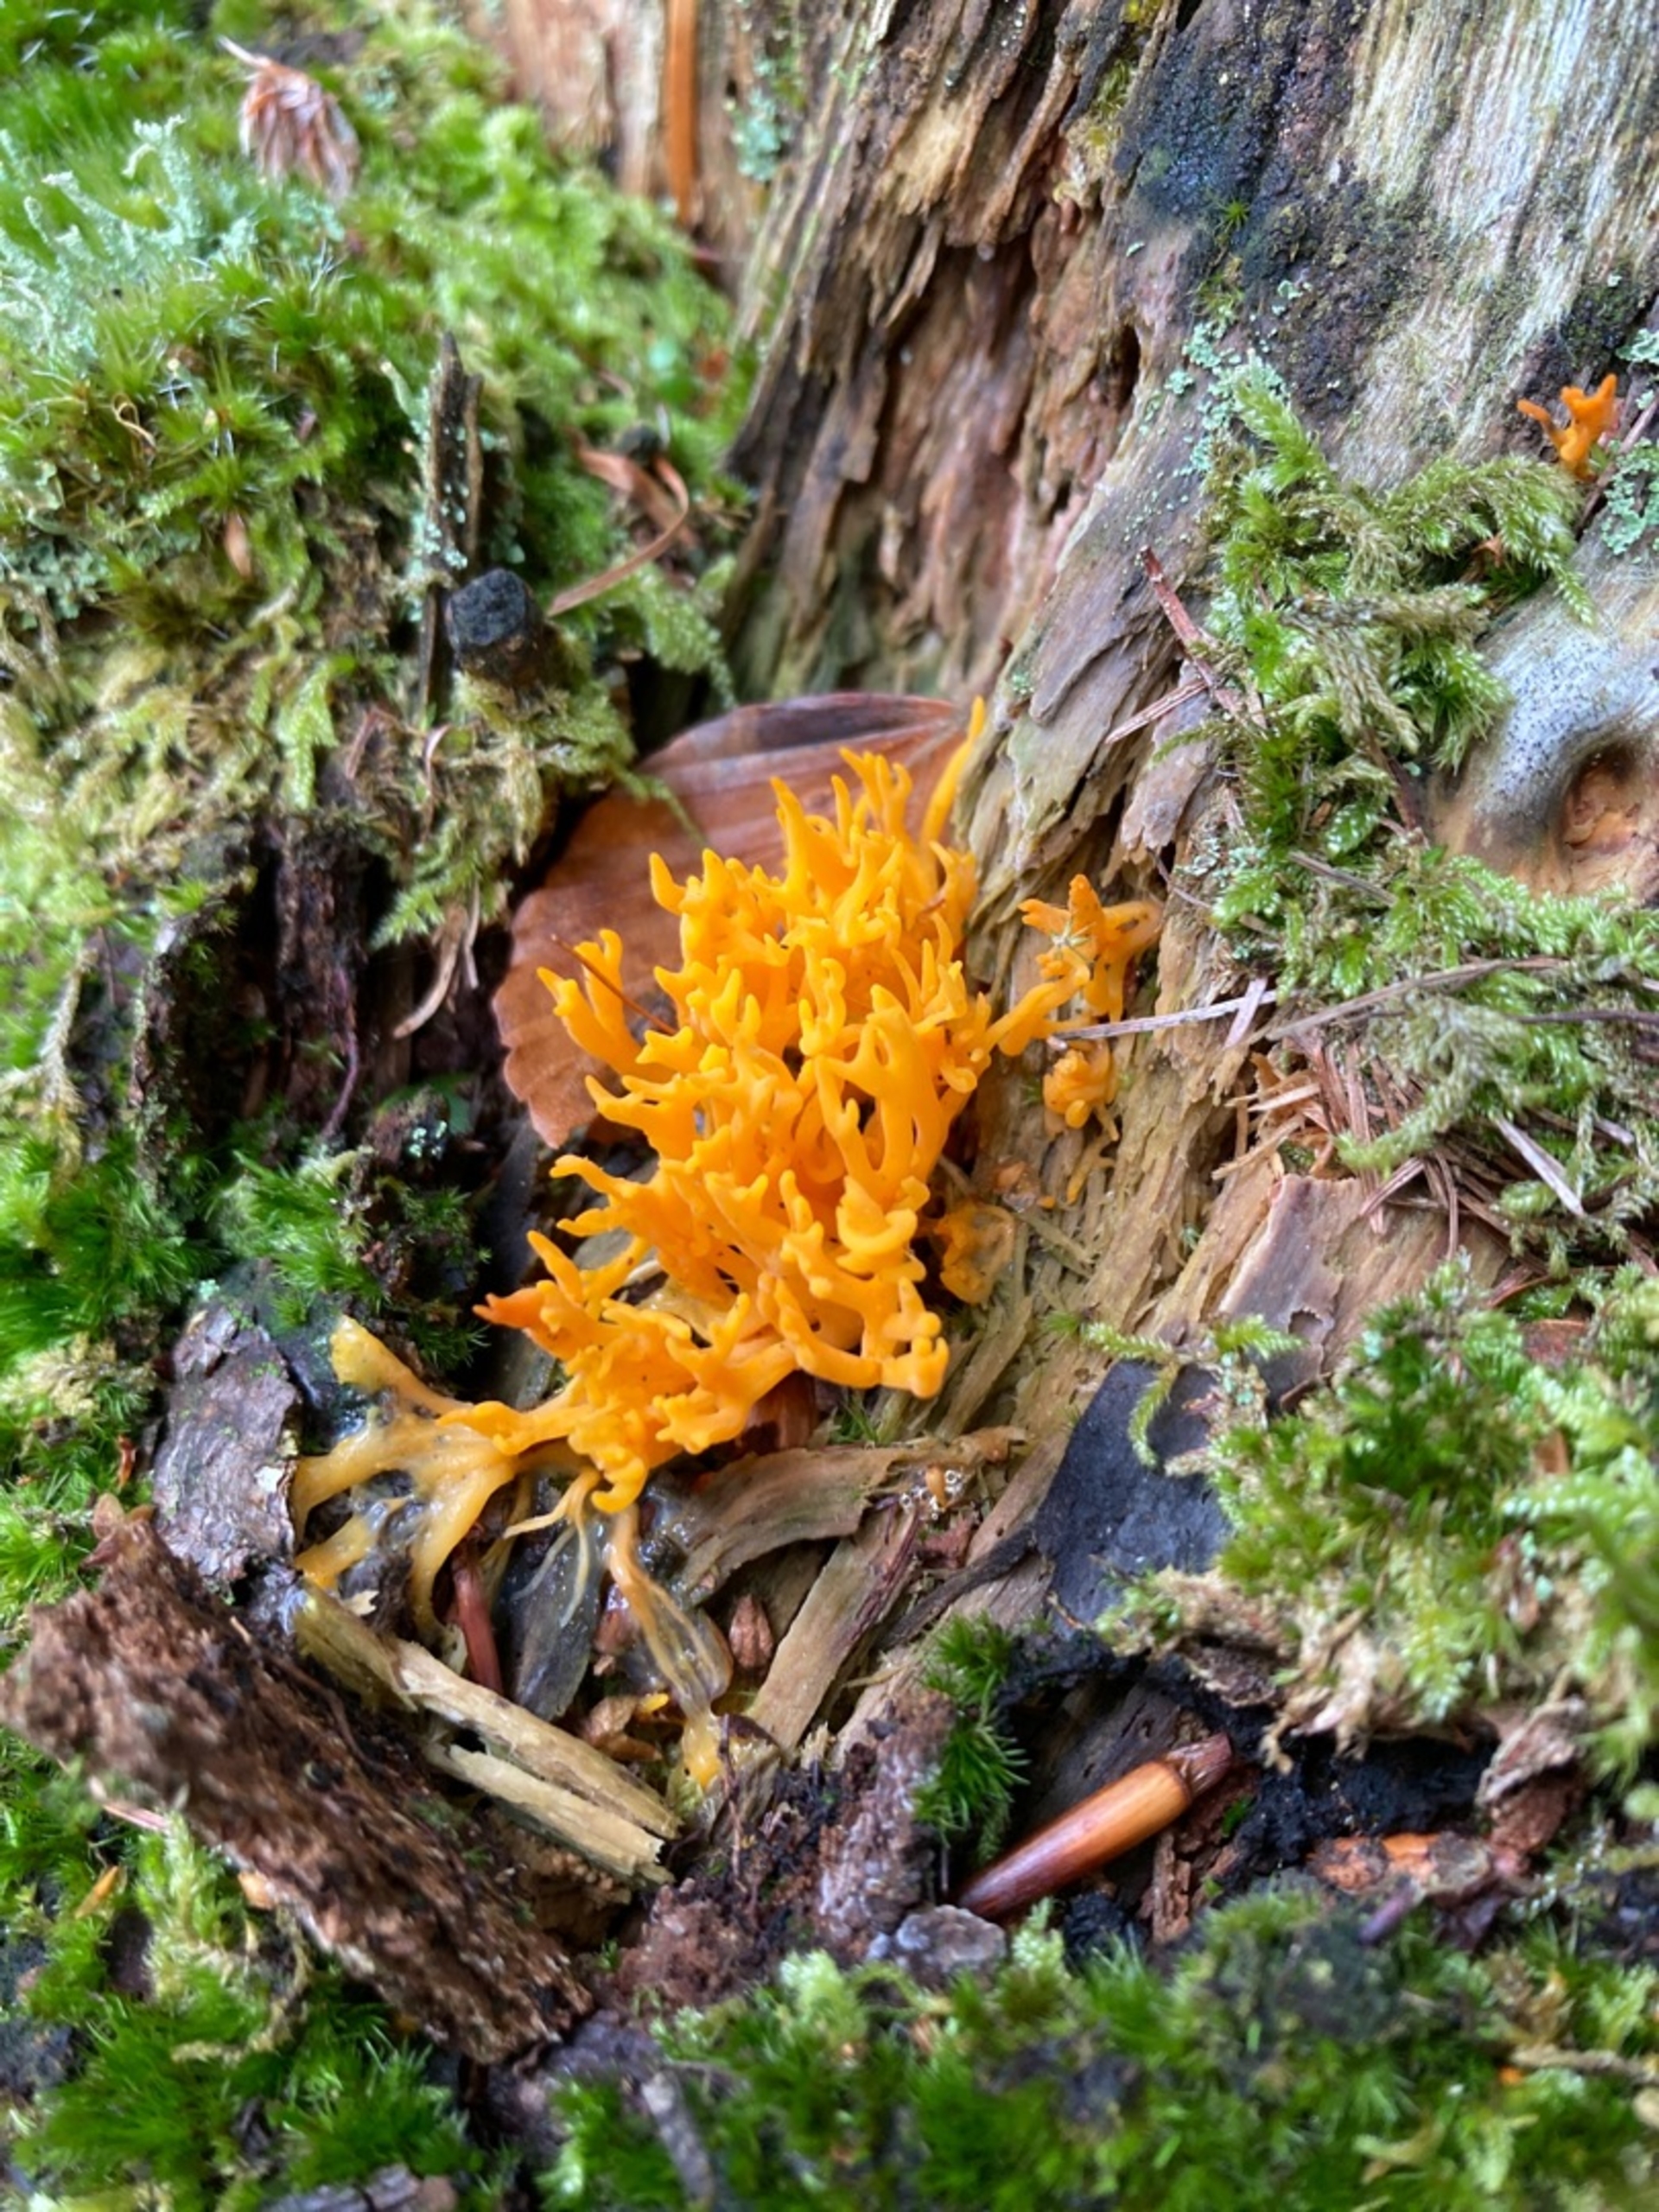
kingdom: Fungi
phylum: Basidiomycota
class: Dacrymycetes
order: Dacrymycetales
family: Dacrymycetaceae
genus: Calocera
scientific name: Calocera viscosa
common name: Almindelig guldgaffel
